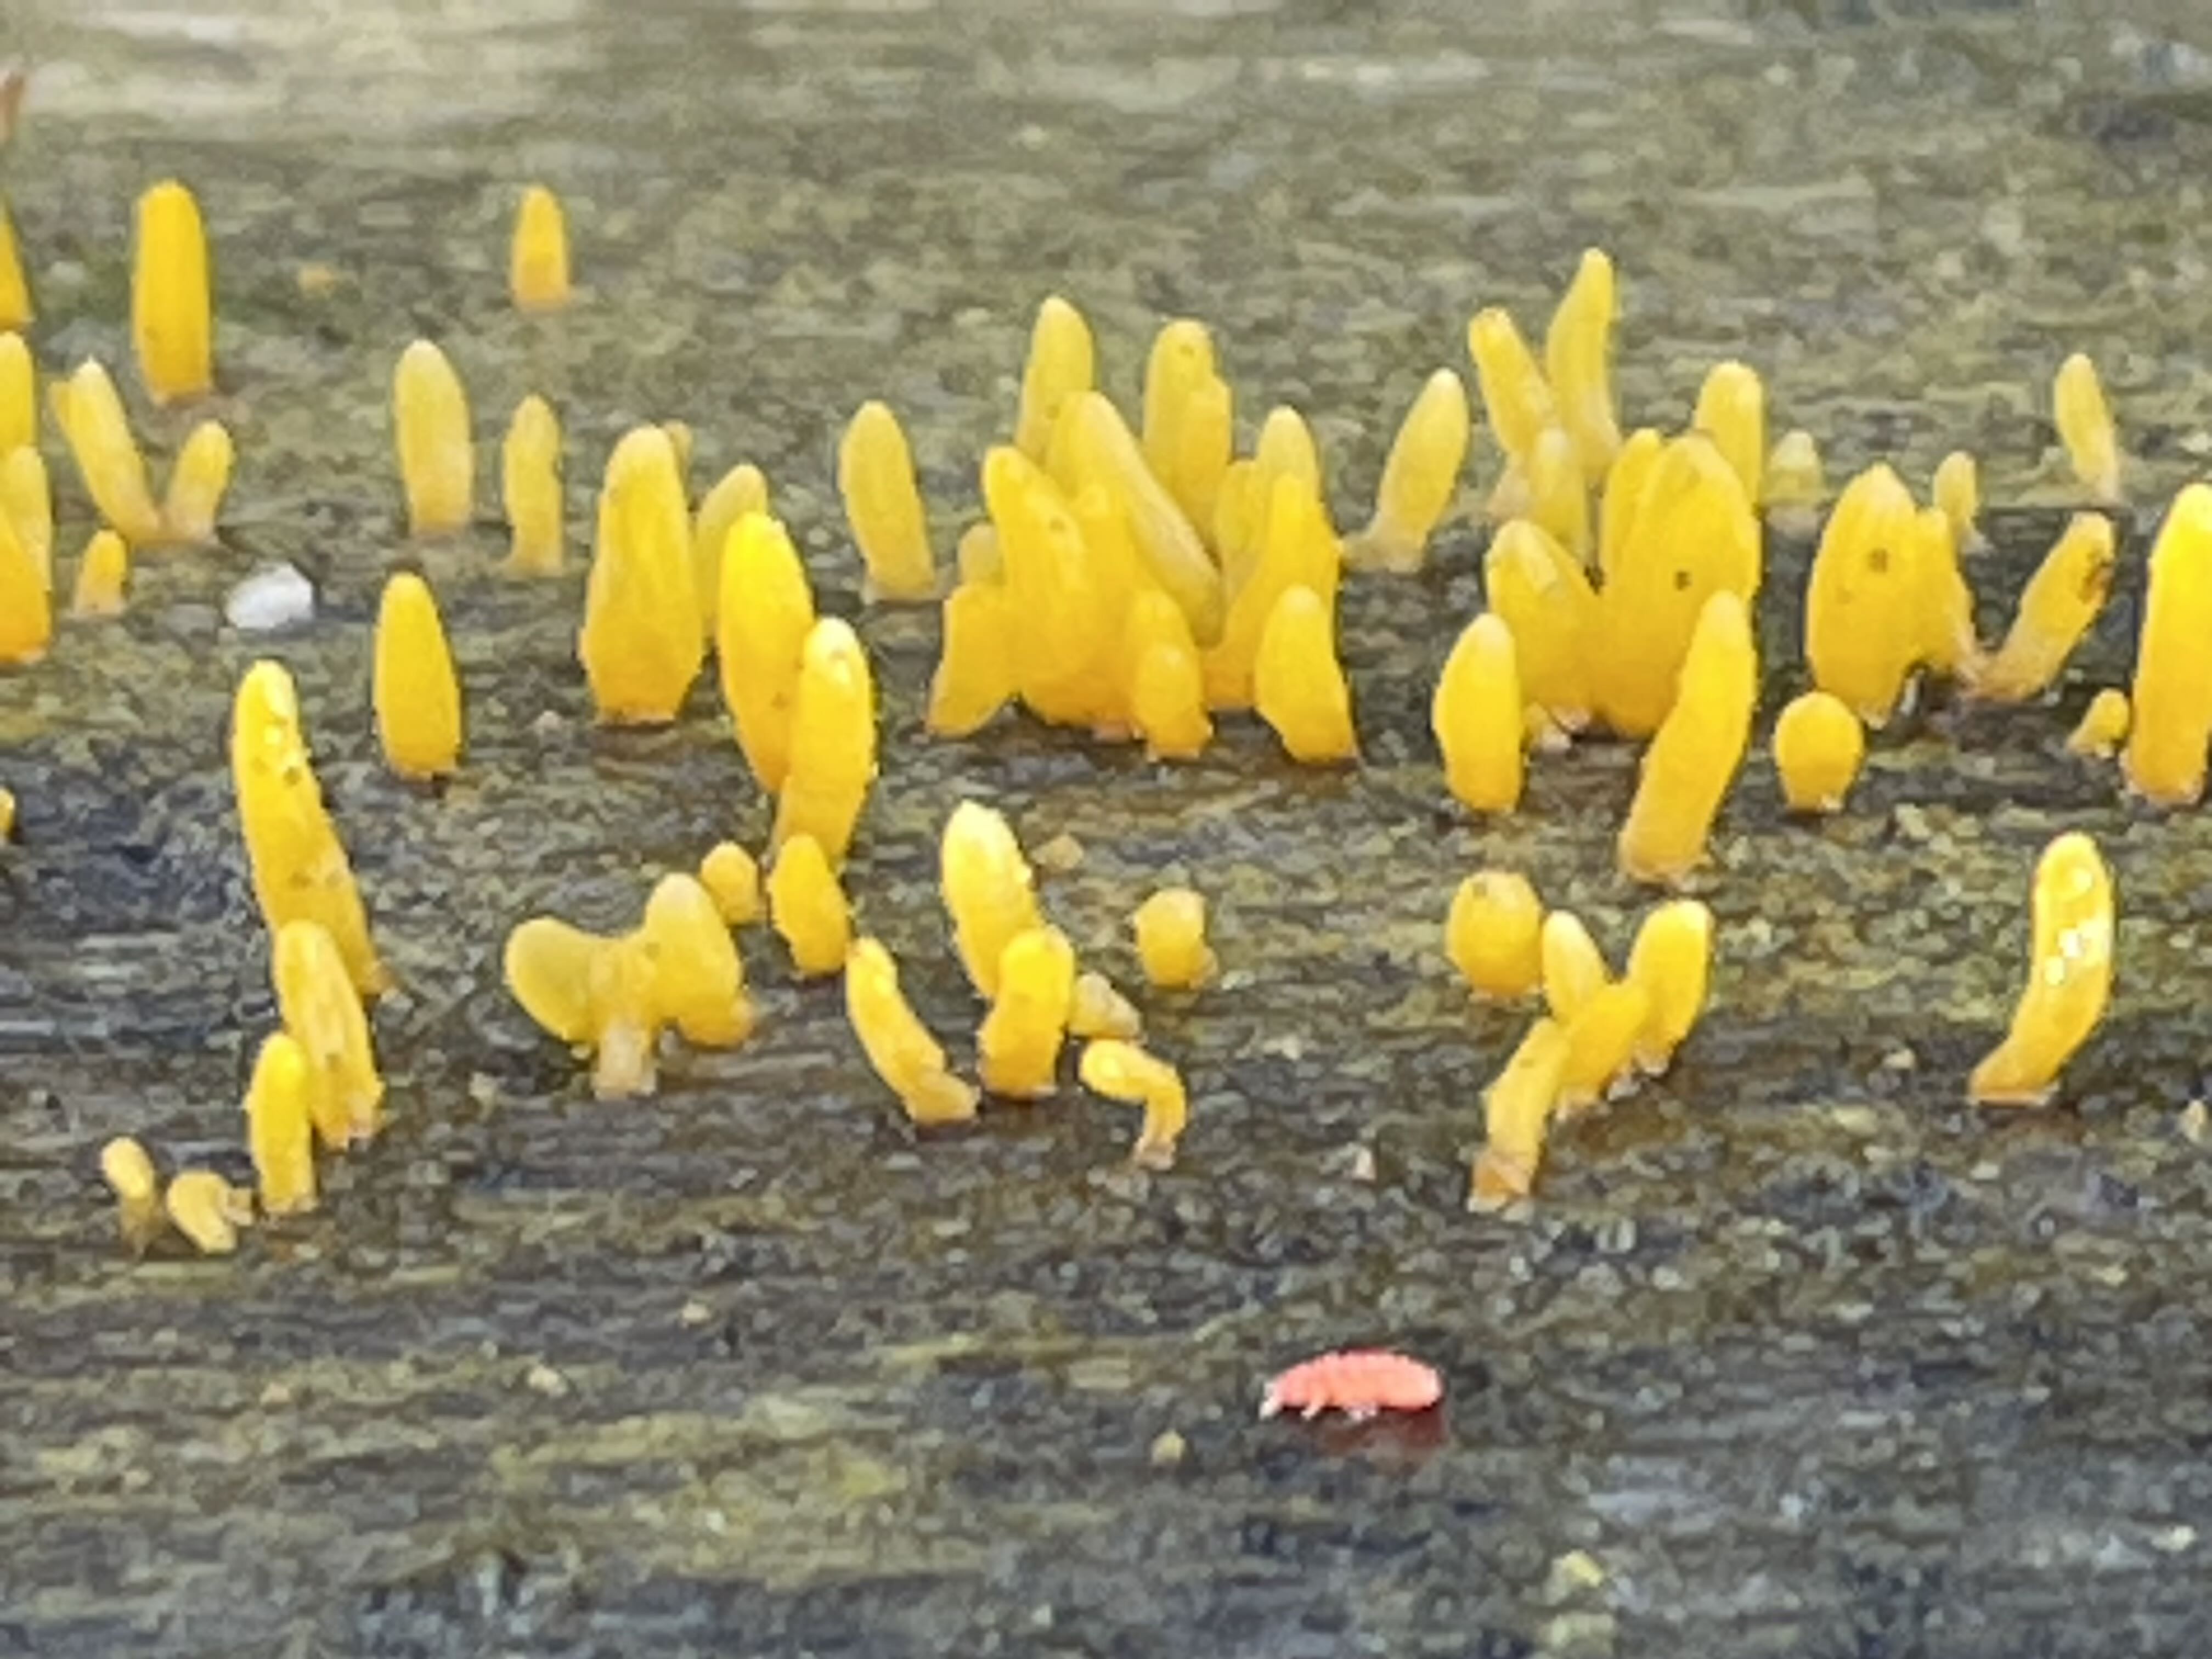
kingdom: Fungi
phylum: Basidiomycota
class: Dacrymycetes
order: Dacrymycetales
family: Dacrymycetaceae
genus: Calocera
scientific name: Calocera furcata
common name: fyrre-guldgaffel
